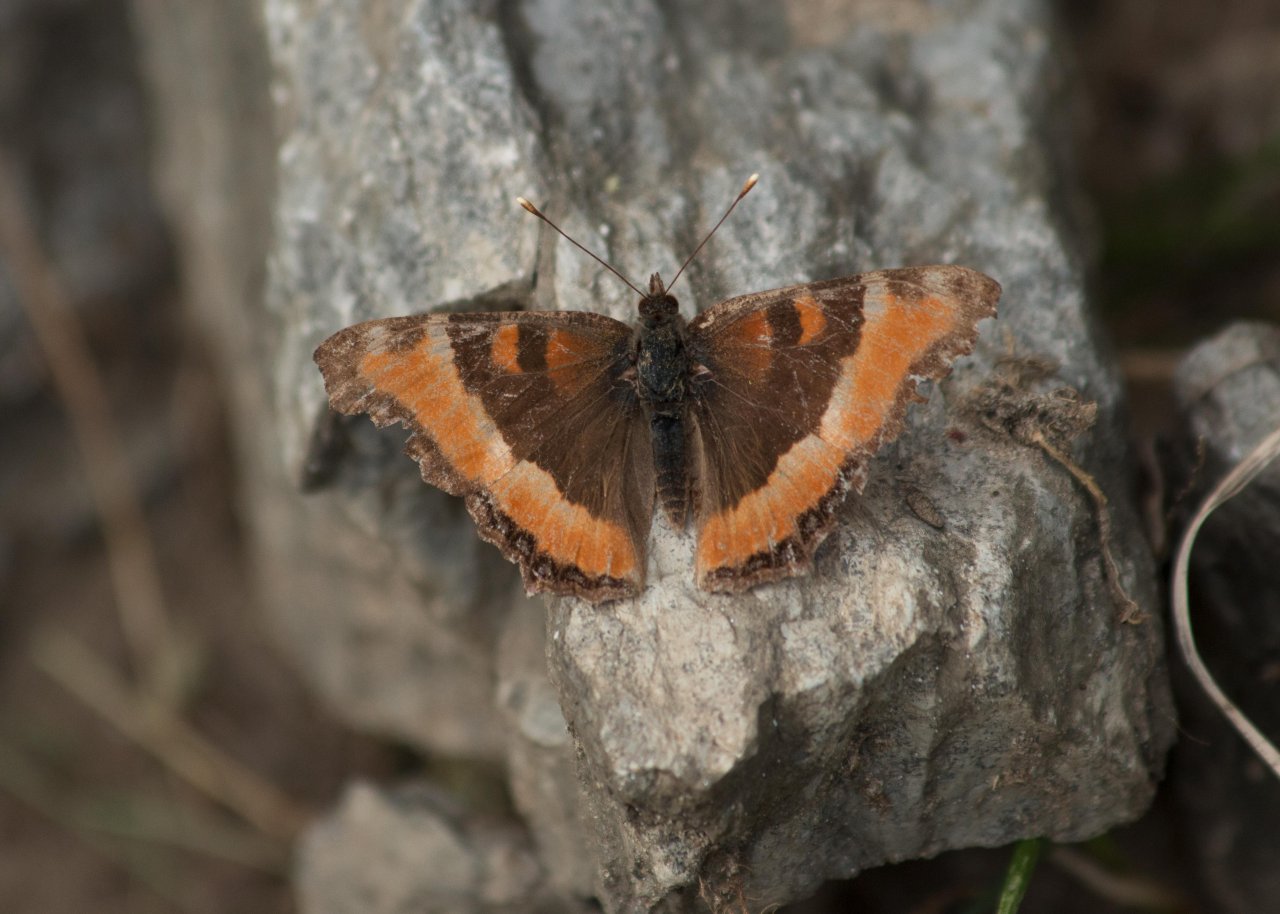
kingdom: Animalia
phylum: Arthropoda
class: Insecta
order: Lepidoptera
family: Nymphalidae
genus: Aglais
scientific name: Aglais milberti
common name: Milbert's Tortoiseshell
